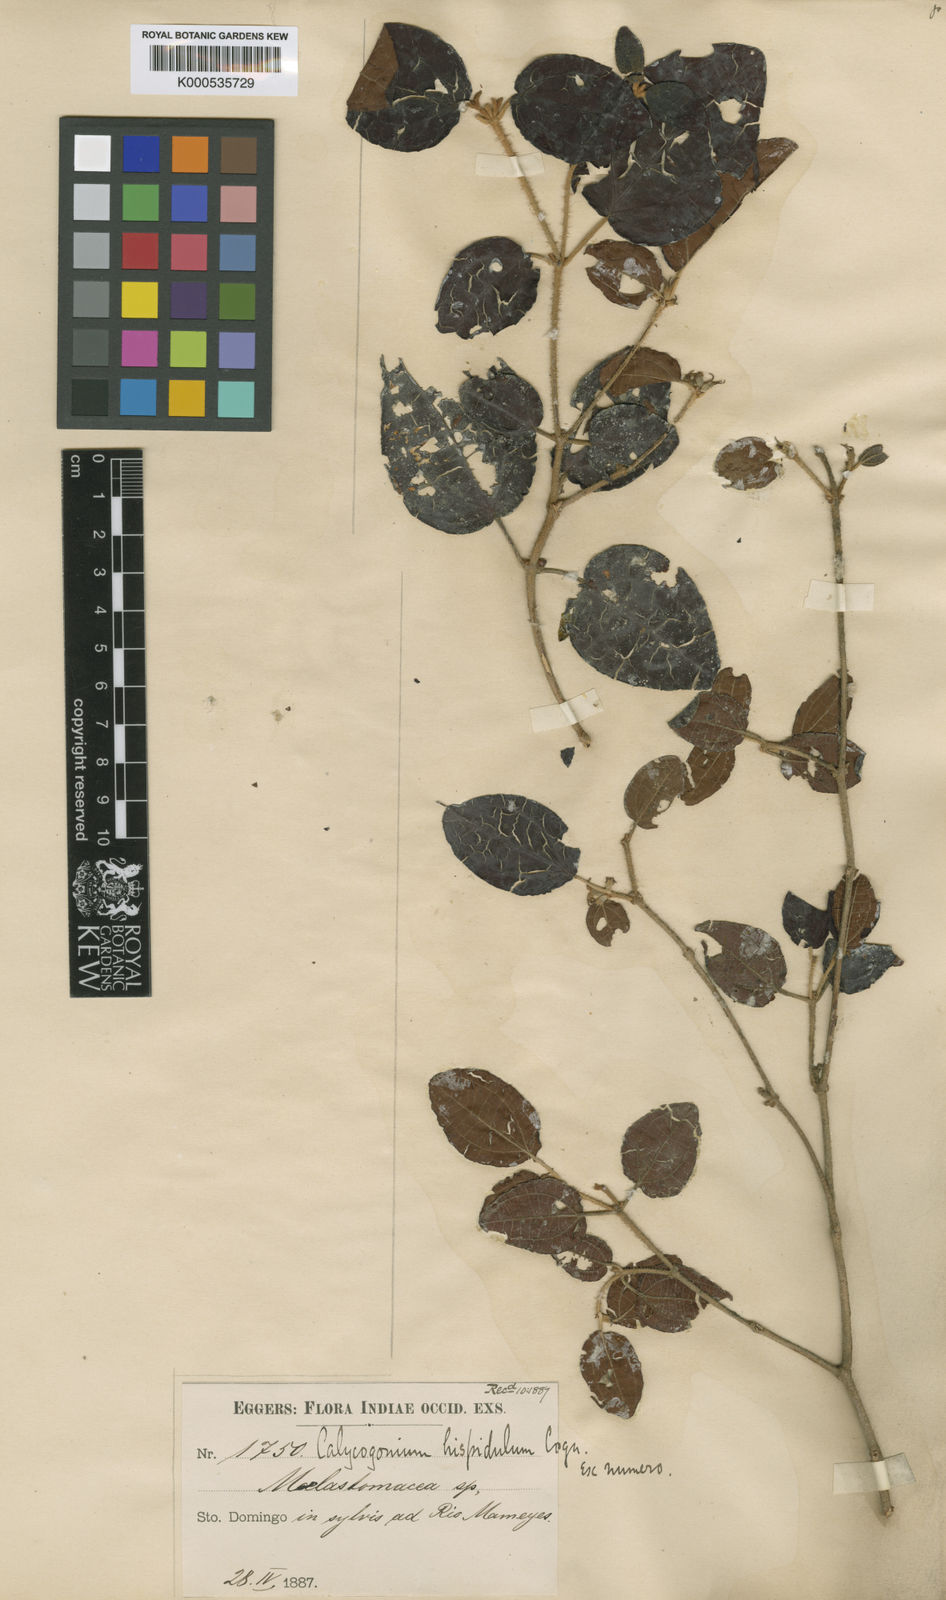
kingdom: Plantae
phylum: Tracheophyta
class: Magnoliopsida
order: Myrtales
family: Melastomataceae
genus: Miconia
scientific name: Miconia hispidula
